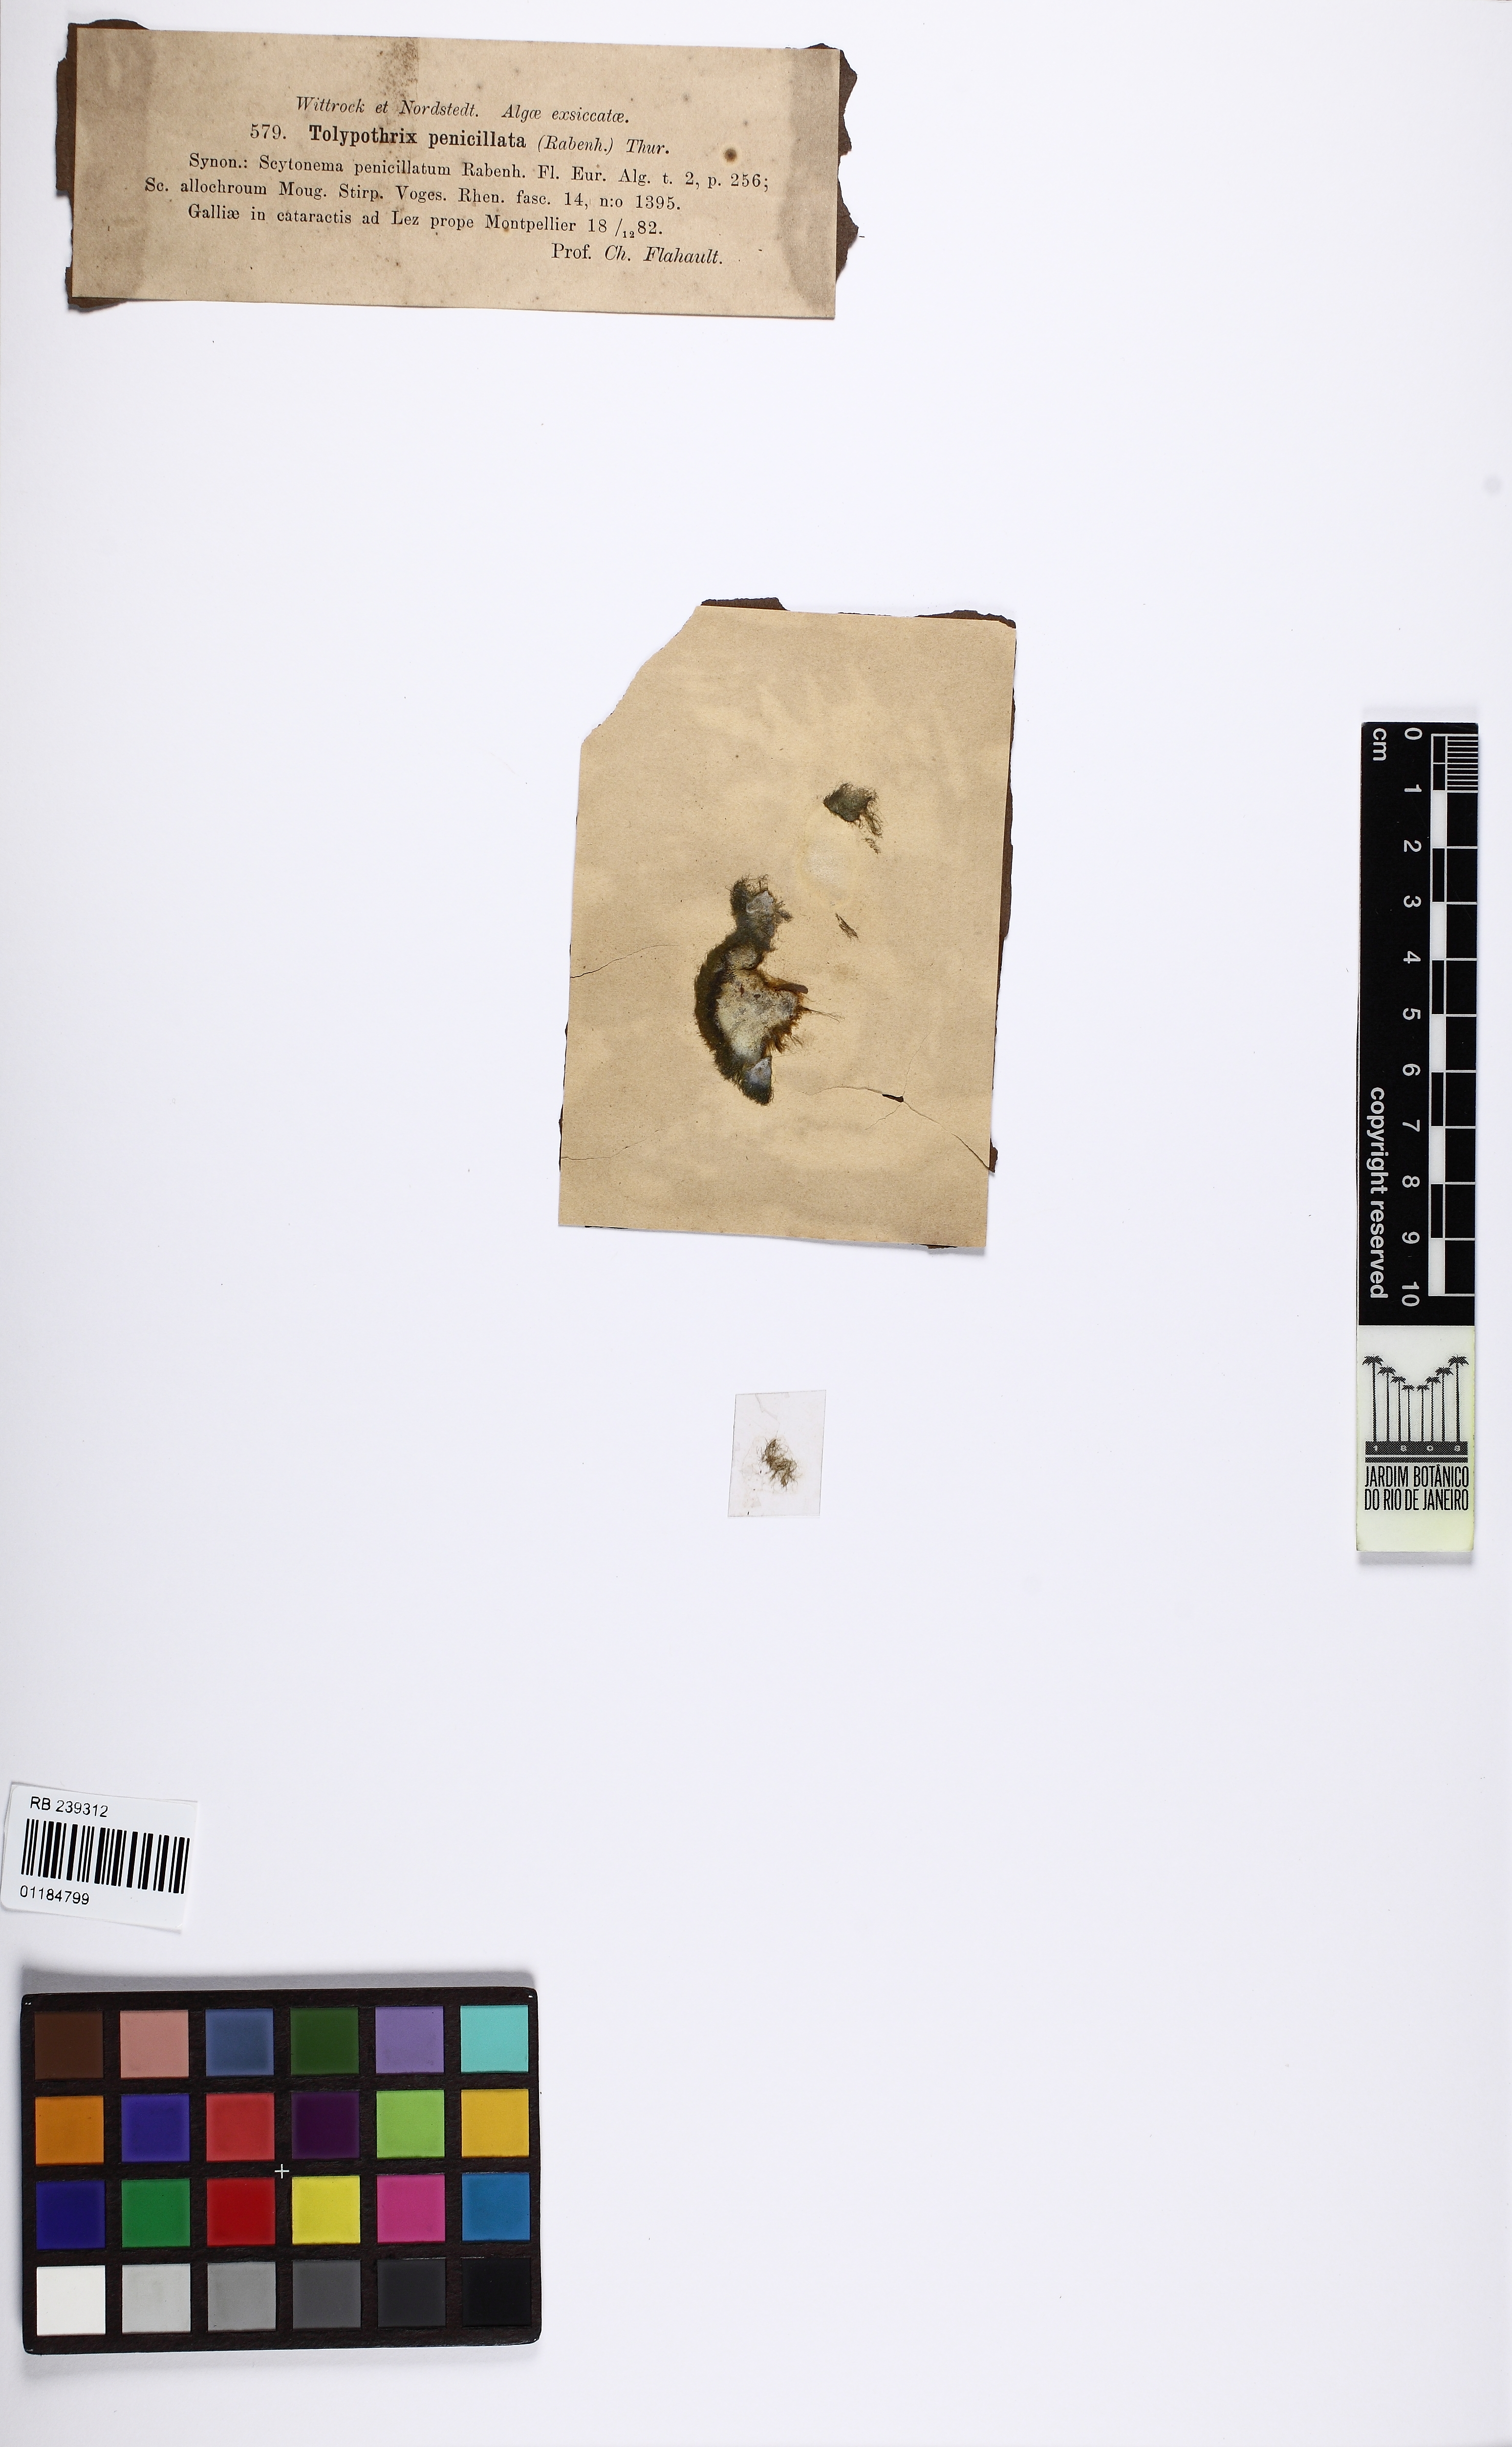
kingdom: Bacteria
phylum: Cyanobacteria
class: Cyanobacteriia
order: Cyanobacteriales
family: Tolypothrichaceae
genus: Tolypothrix
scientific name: Tolypothrix penicillata
